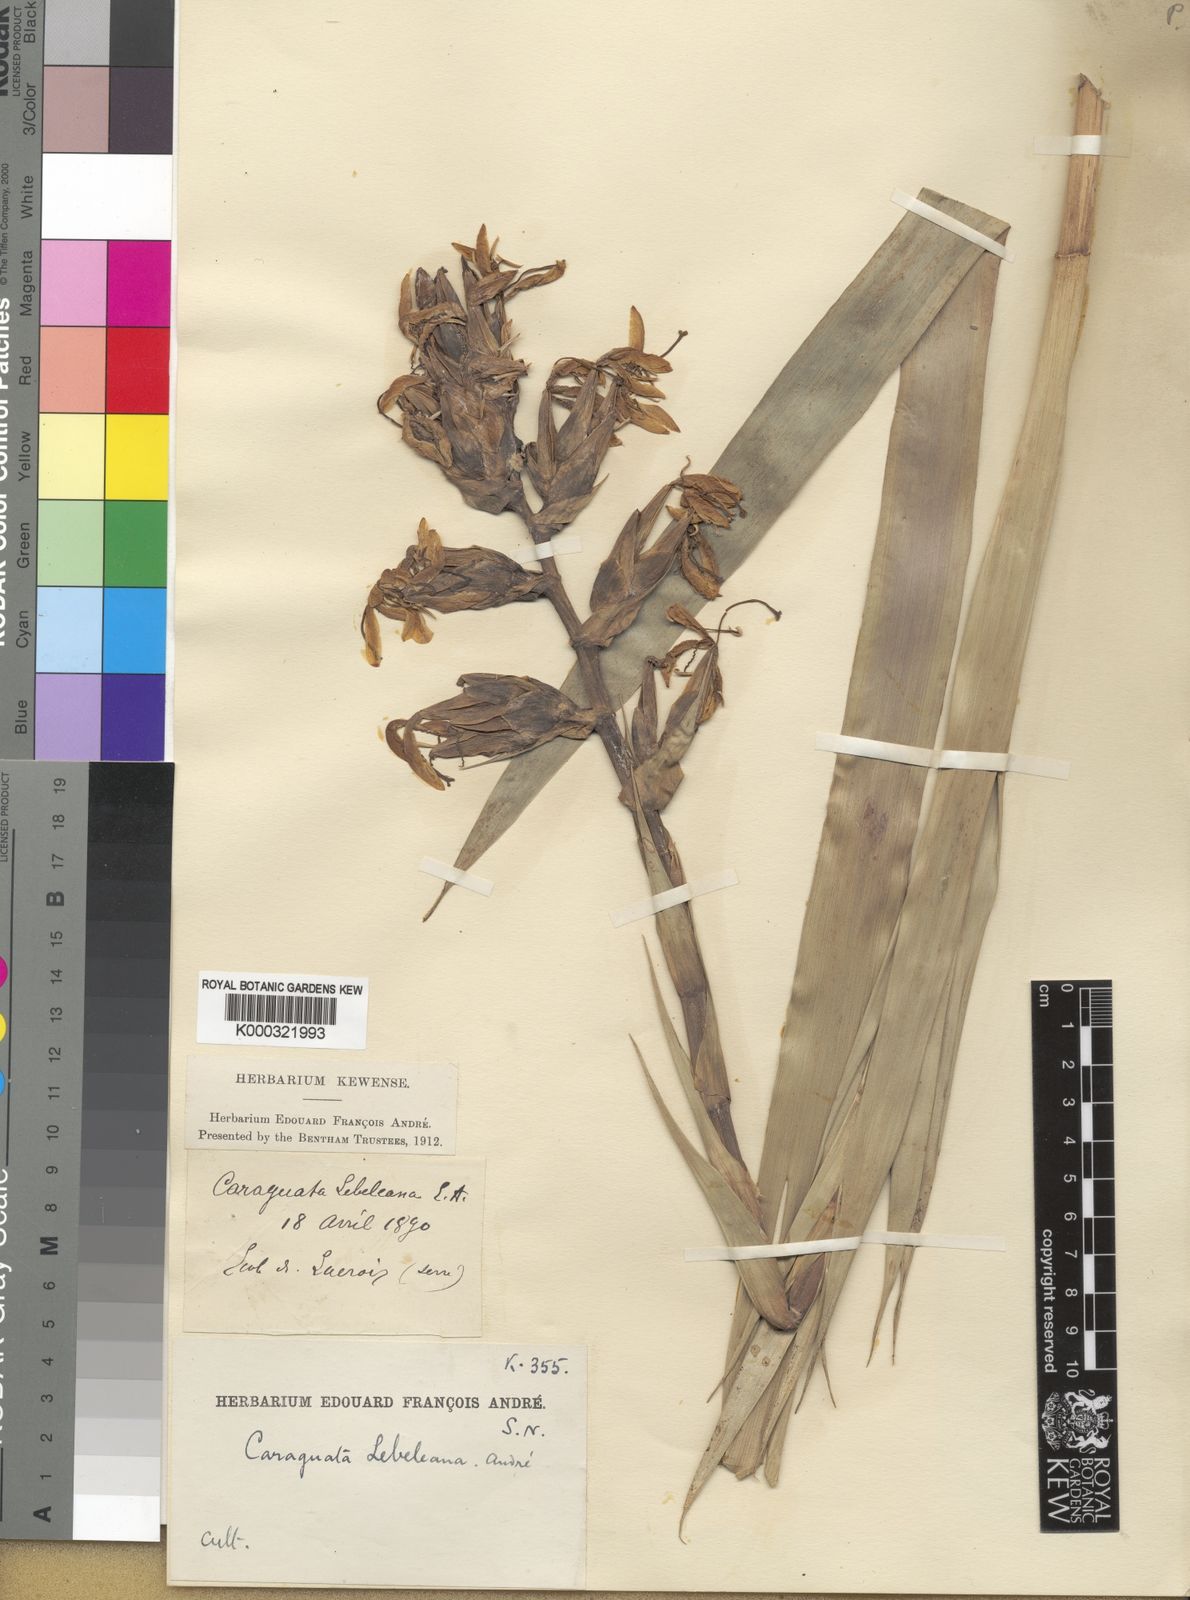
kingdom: Plantae
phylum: Tracheophyta
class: Liliopsida
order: Poales
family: Bromeliaceae
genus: Guzmania
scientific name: Guzmania virescens
